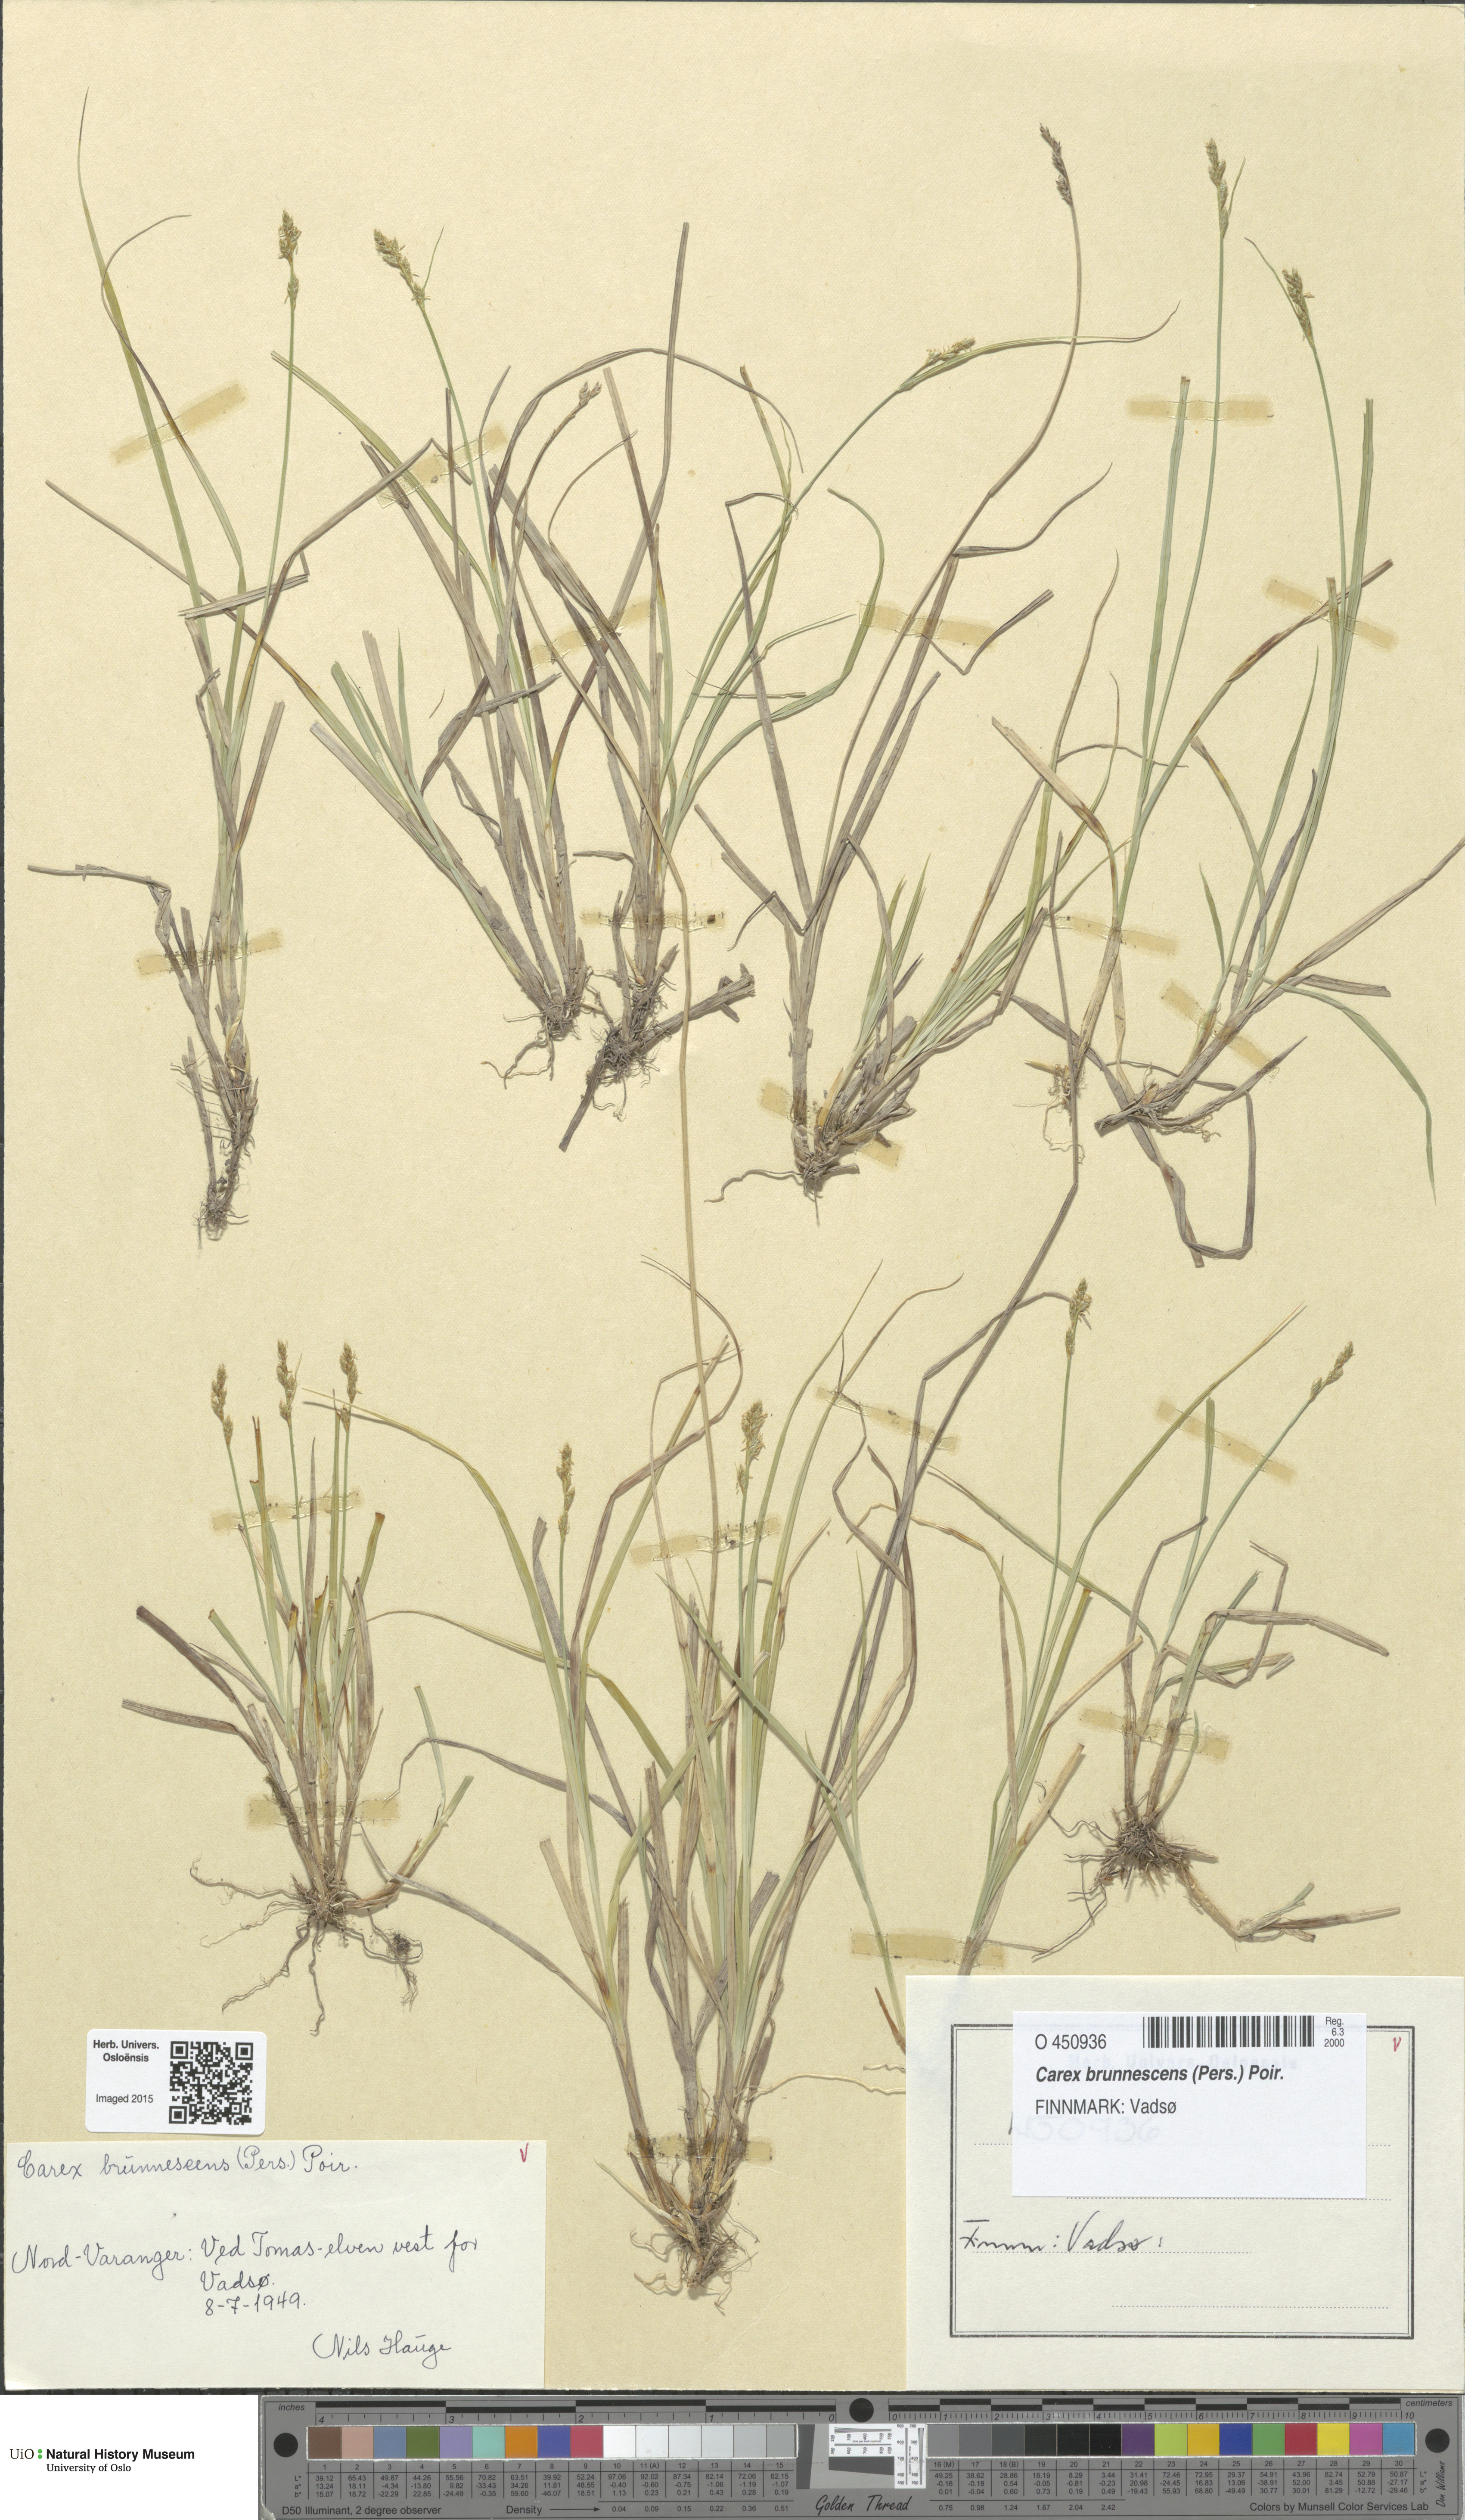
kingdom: Plantae
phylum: Tracheophyta
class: Liliopsida
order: Poales
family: Cyperaceae
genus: Carex
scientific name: Carex brunnescens
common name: Brown sedge
